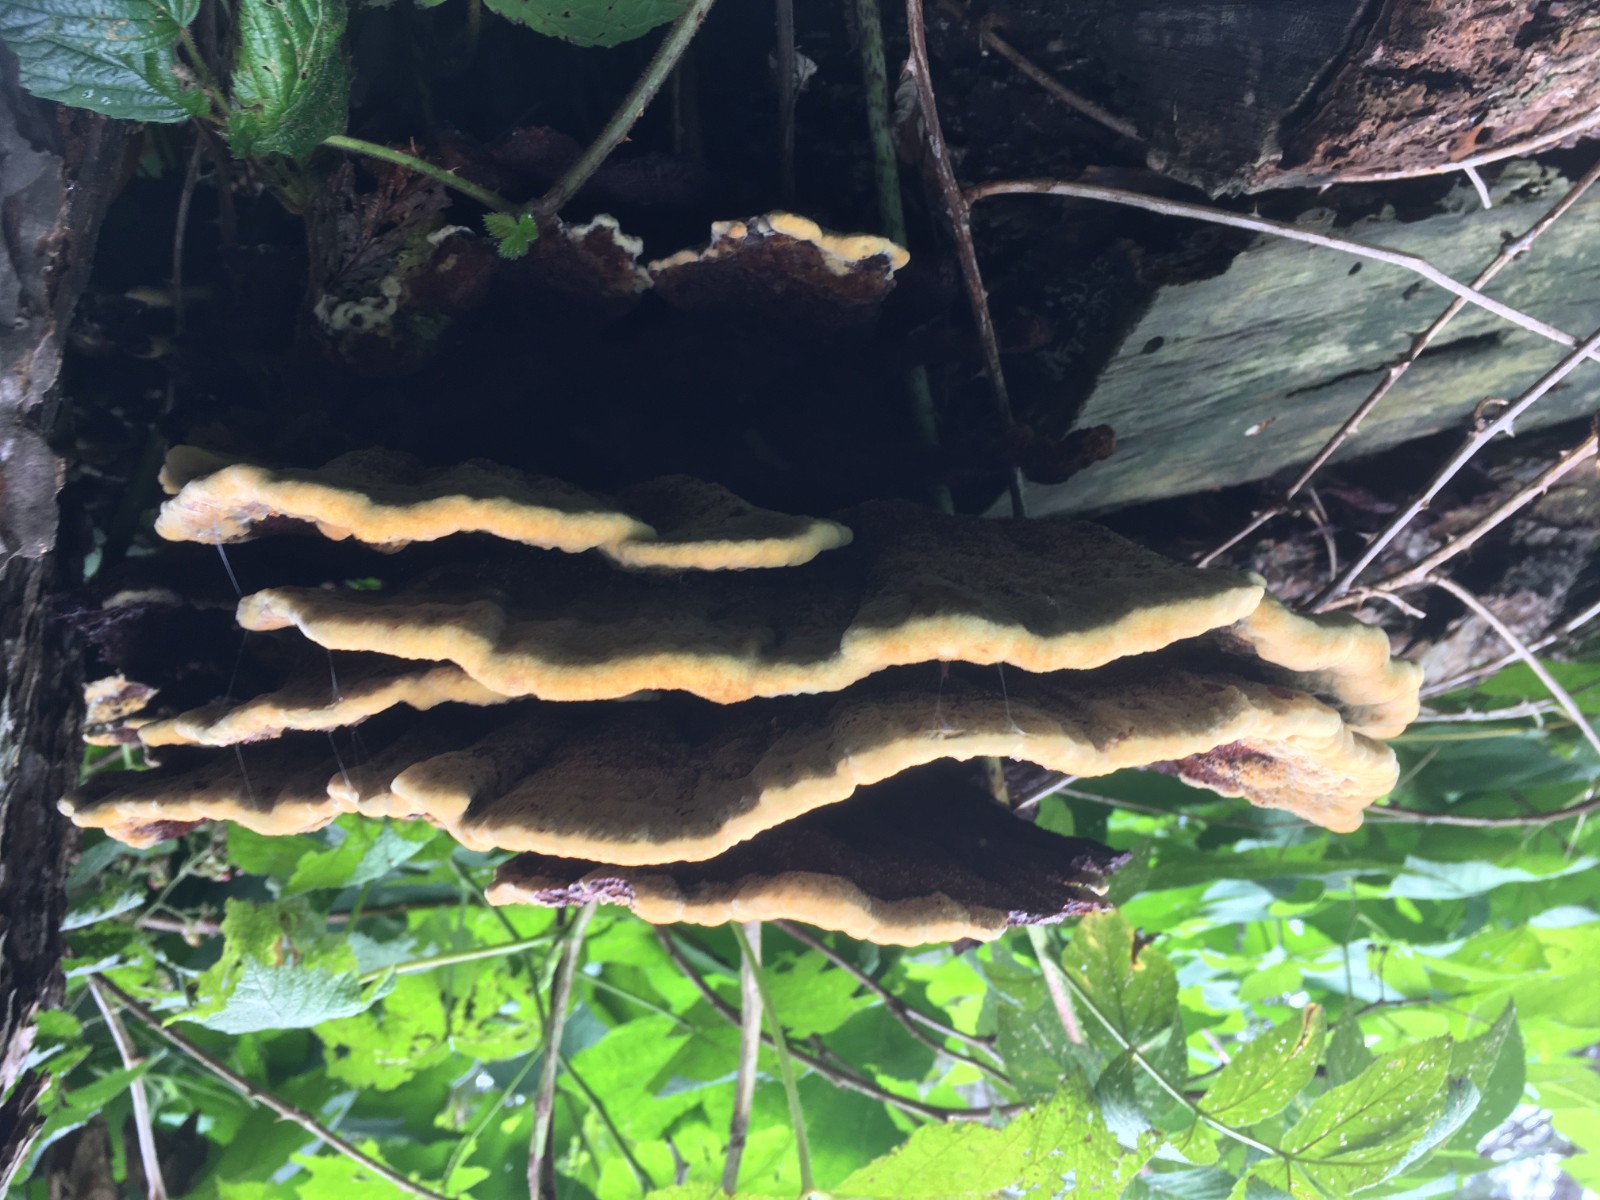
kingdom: Fungi
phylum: Basidiomycota
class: Agaricomycetes
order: Polyporales
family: Laetiporaceae
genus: Phaeolus
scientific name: Phaeolus schweinitzii
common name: brunporesvamp
